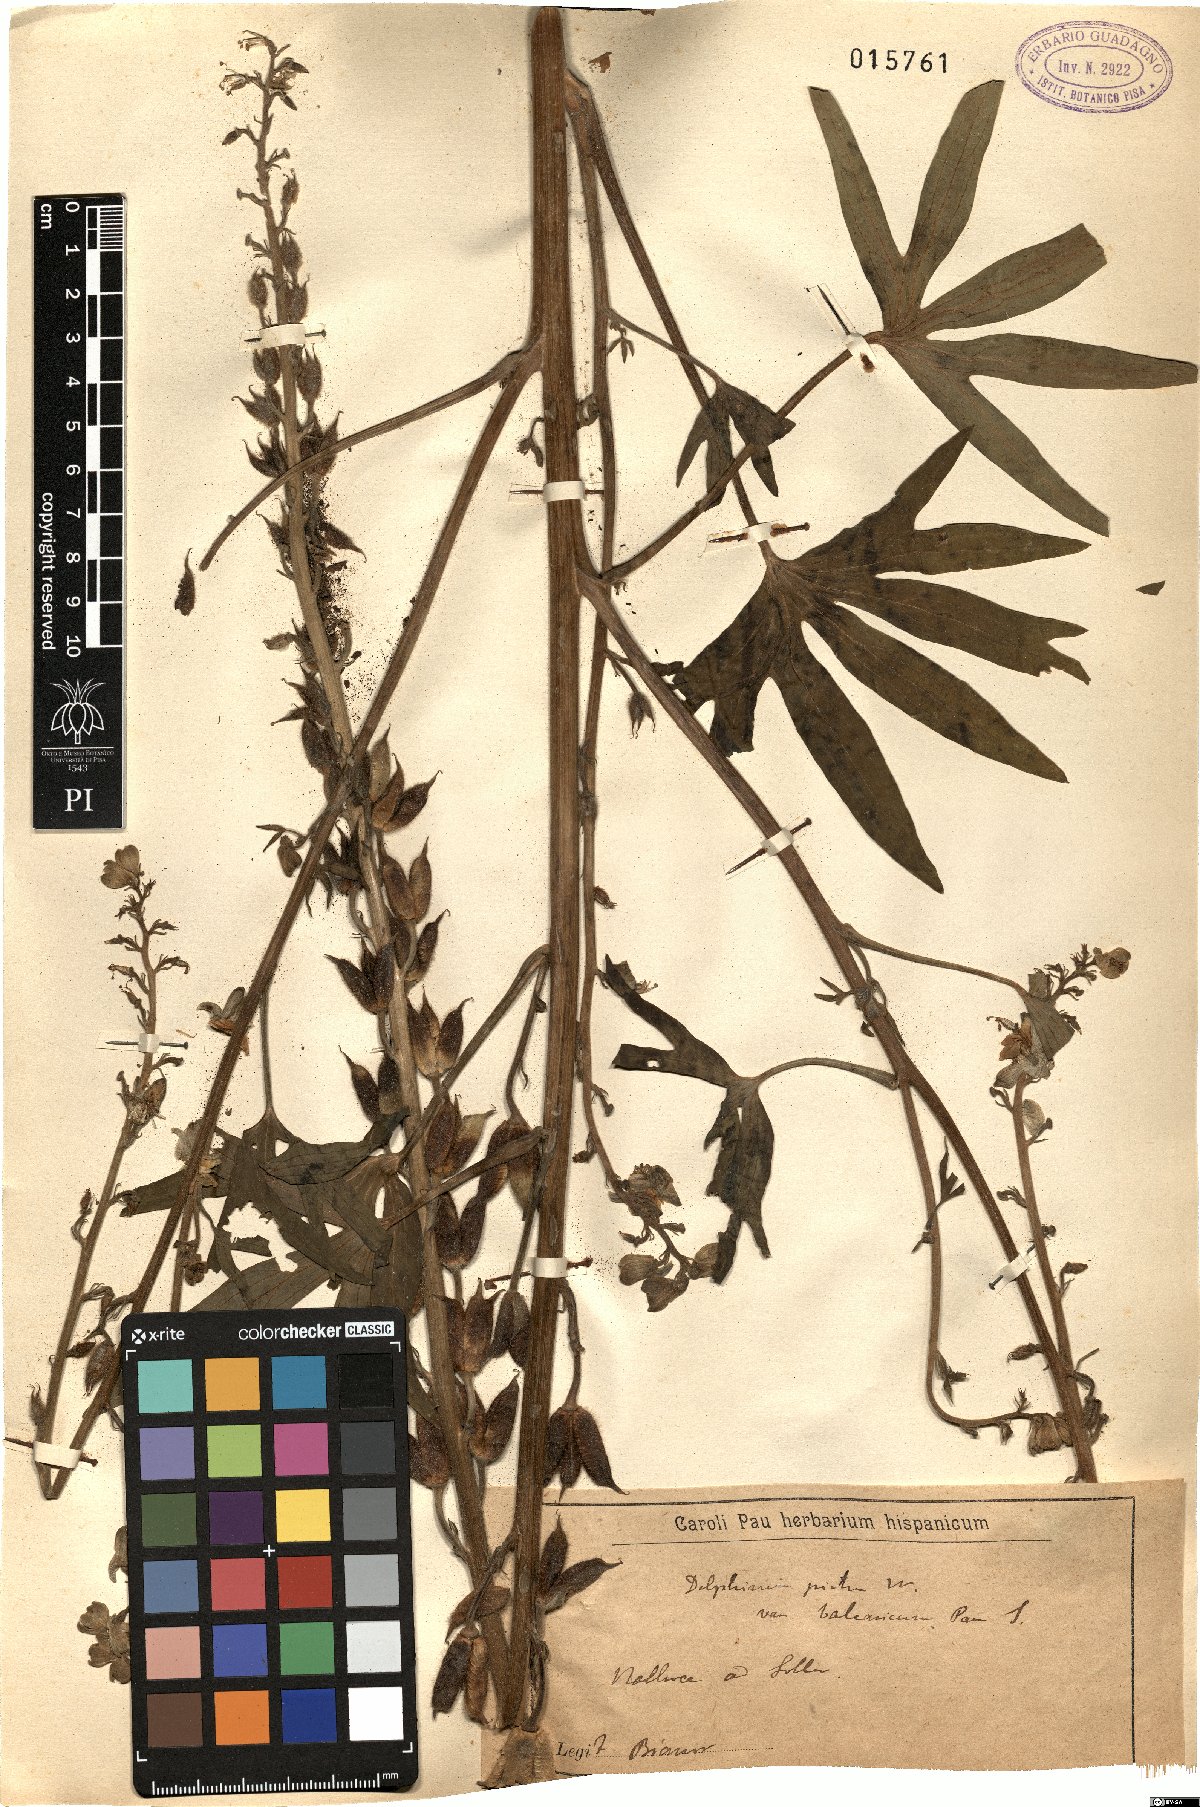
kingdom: Plantae
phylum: Tracheophyta
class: Magnoliopsida
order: Ranunculales
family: Ranunculaceae
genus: Staphisagria
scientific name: Staphisagria picta
